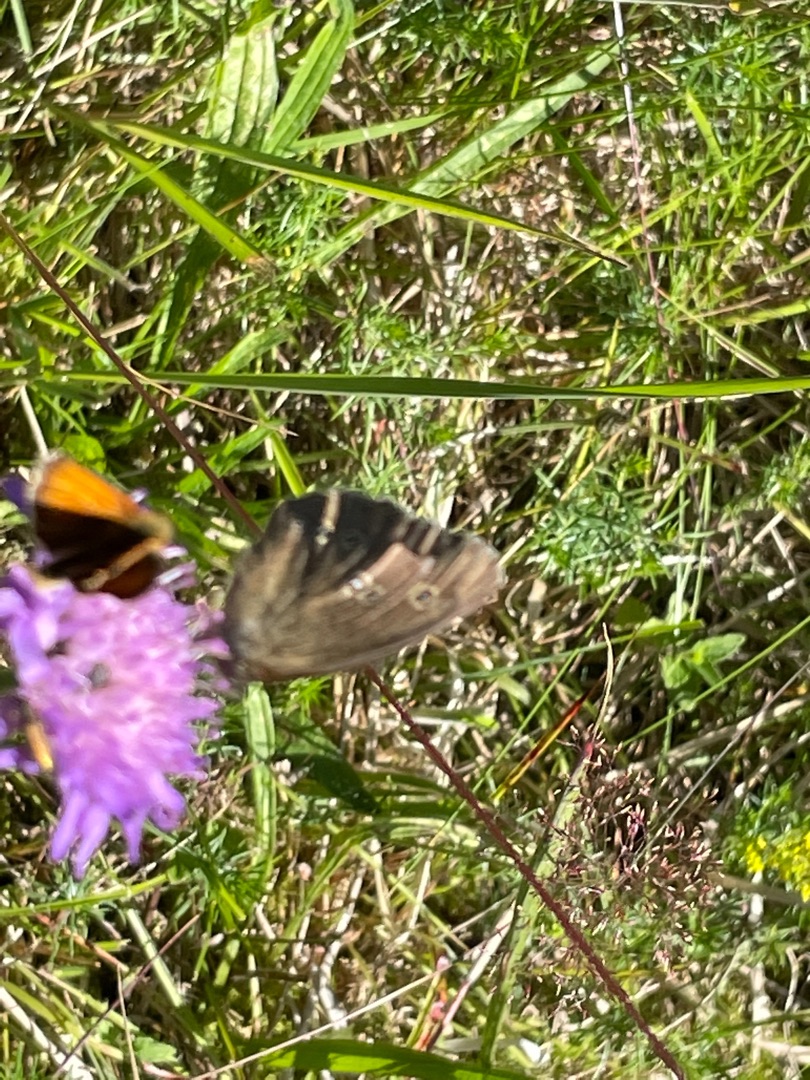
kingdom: Animalia
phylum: Arthropoda
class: Insecta
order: Lepidoptera
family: Nymphalidae
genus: Aphantopus
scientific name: Aphantopus hyperantus
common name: Engrandøje
